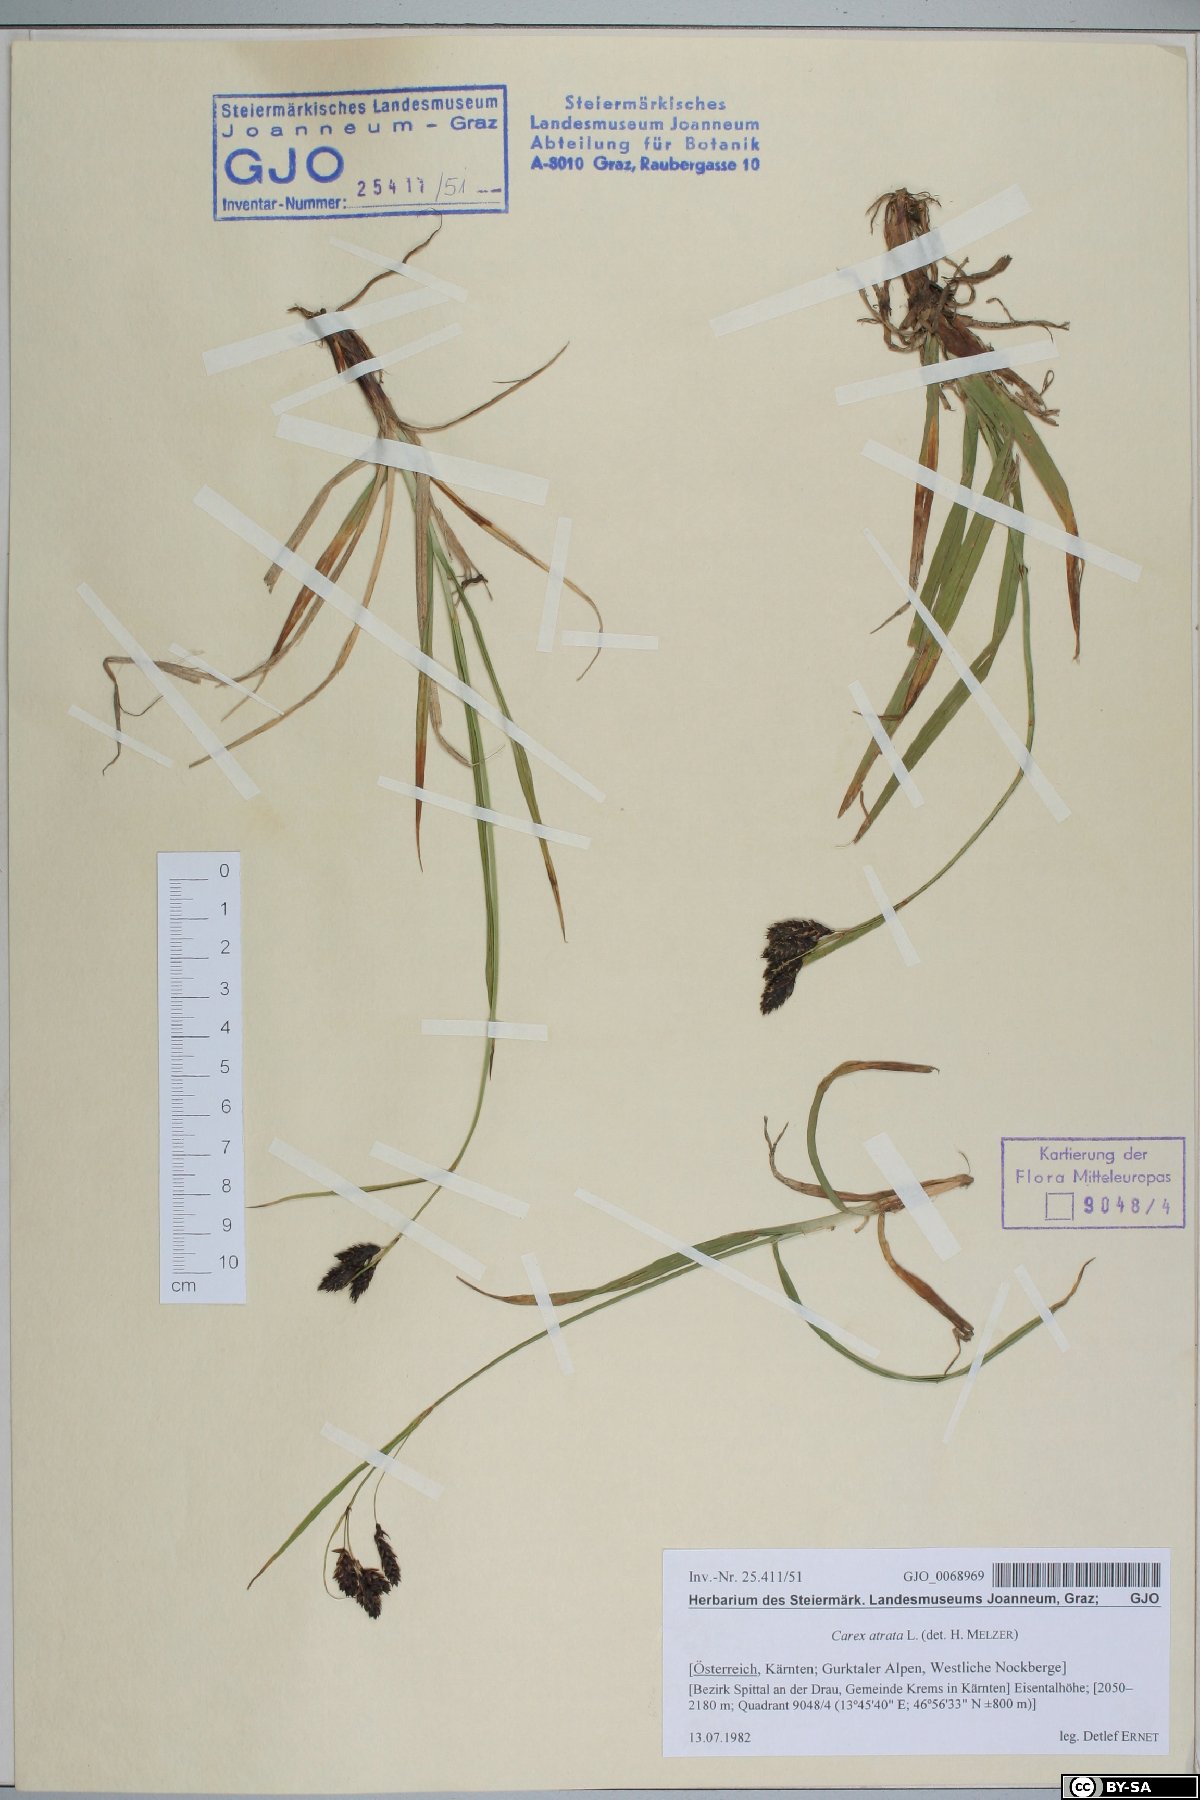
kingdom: Plantae
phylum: Tracheophyta
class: Liliopsida
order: Poales
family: Cyperaceae
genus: Carex
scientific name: Carex atrata
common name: Black alpine sedge
